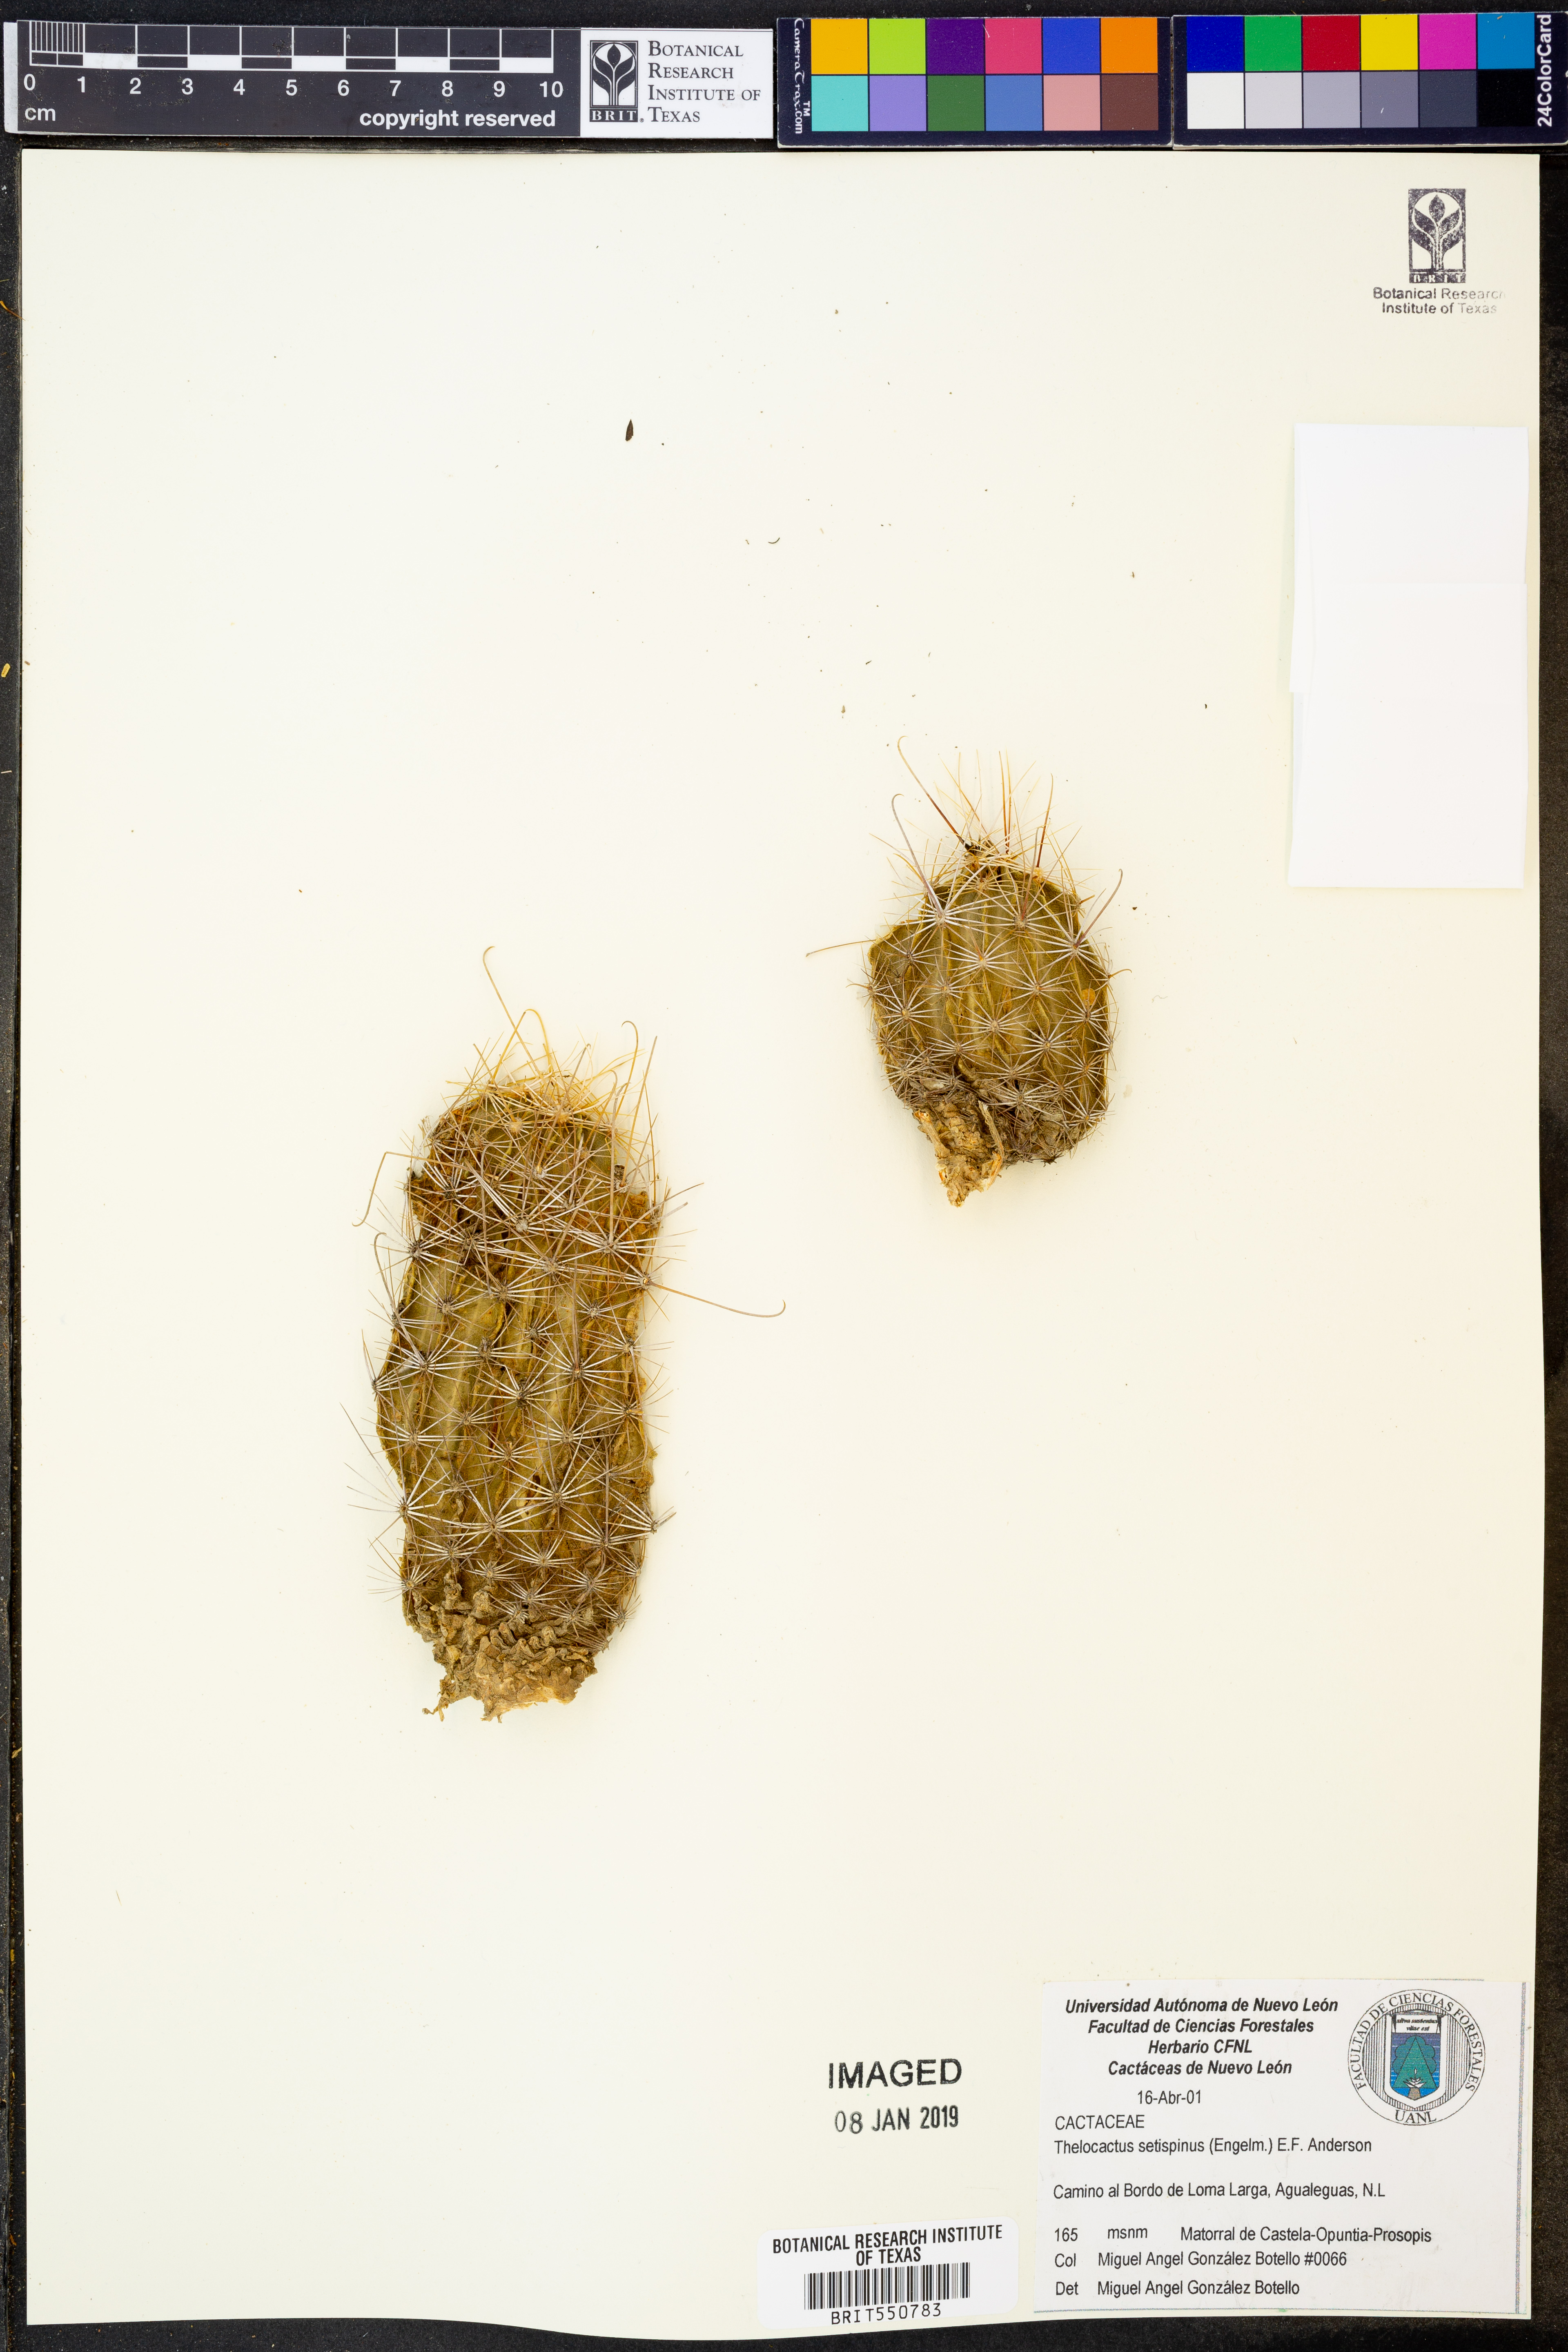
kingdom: Plantae
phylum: Tracheophyta
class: Magnoliopsida
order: Caryophyllales
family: Cactaceae
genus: Thelocactus
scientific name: Thelocactus setispinus
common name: Miniature barrel cactus
